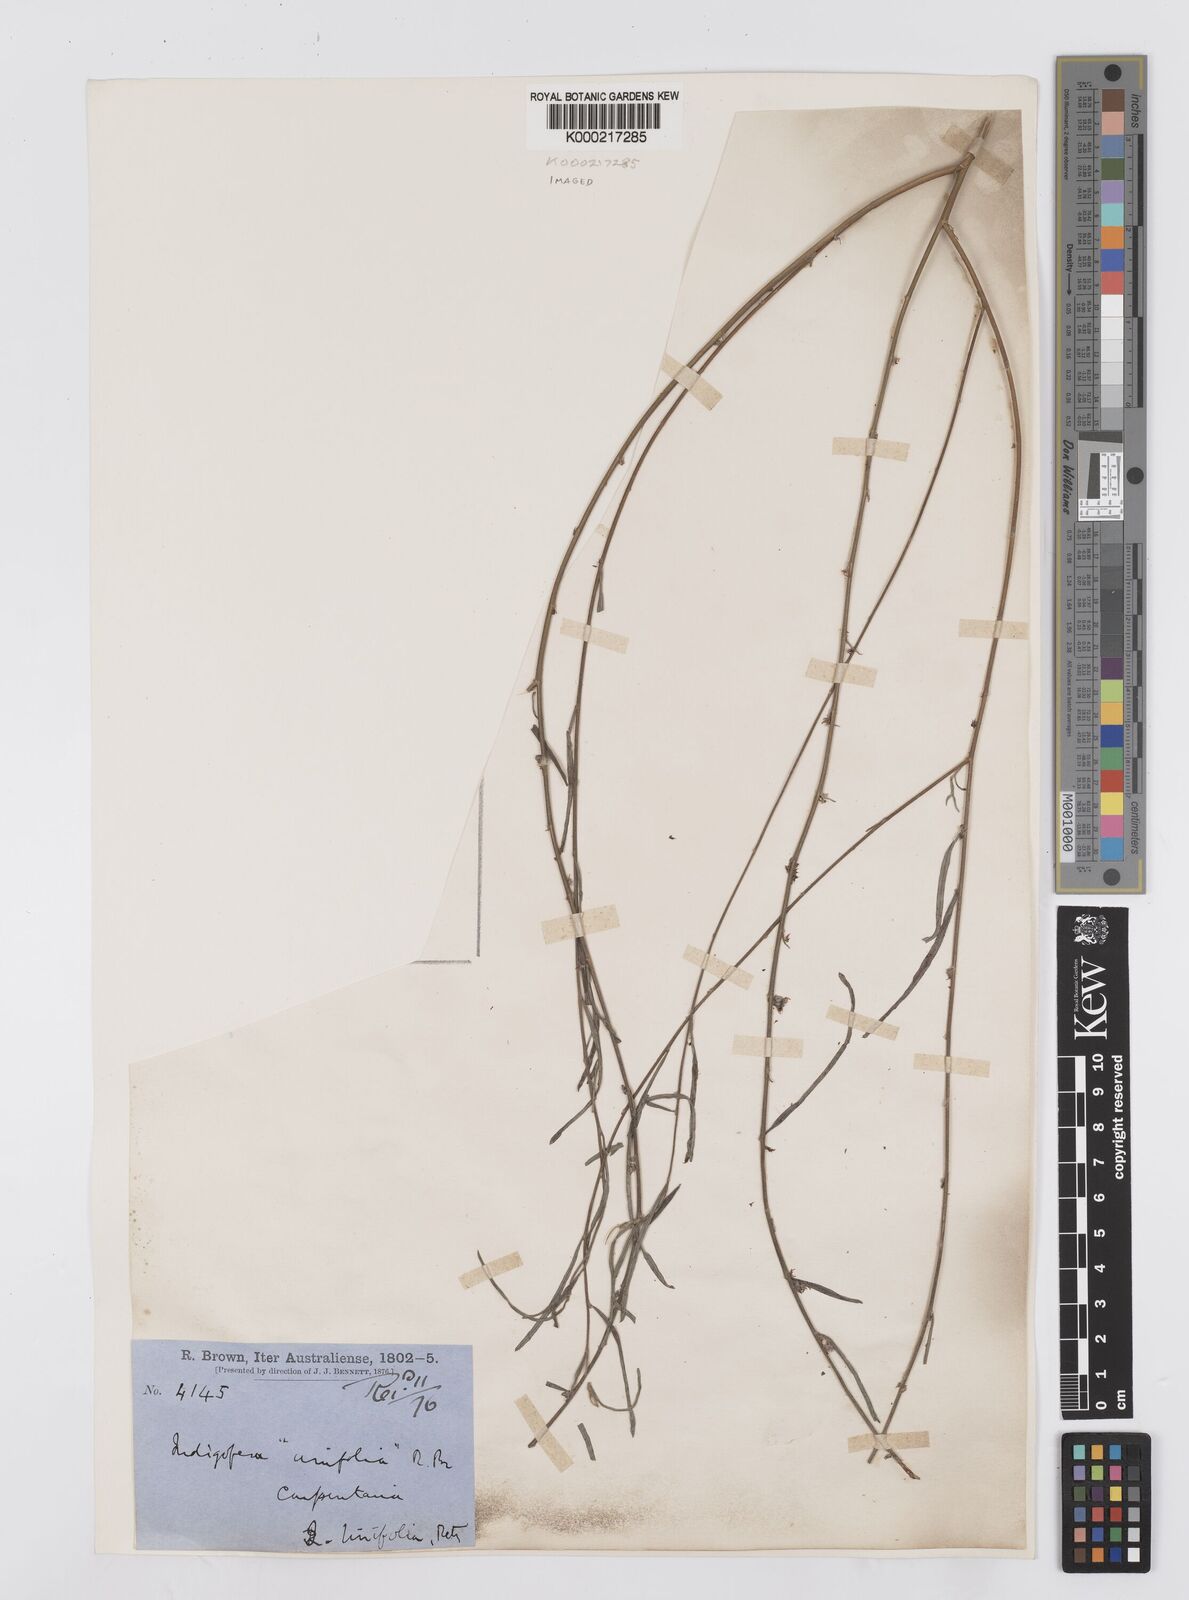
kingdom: Plantae
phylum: Tracheophyta
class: Magnoliopsida
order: Fabales
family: Fabaceae
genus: Indigofera
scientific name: Indigofera linifolia
